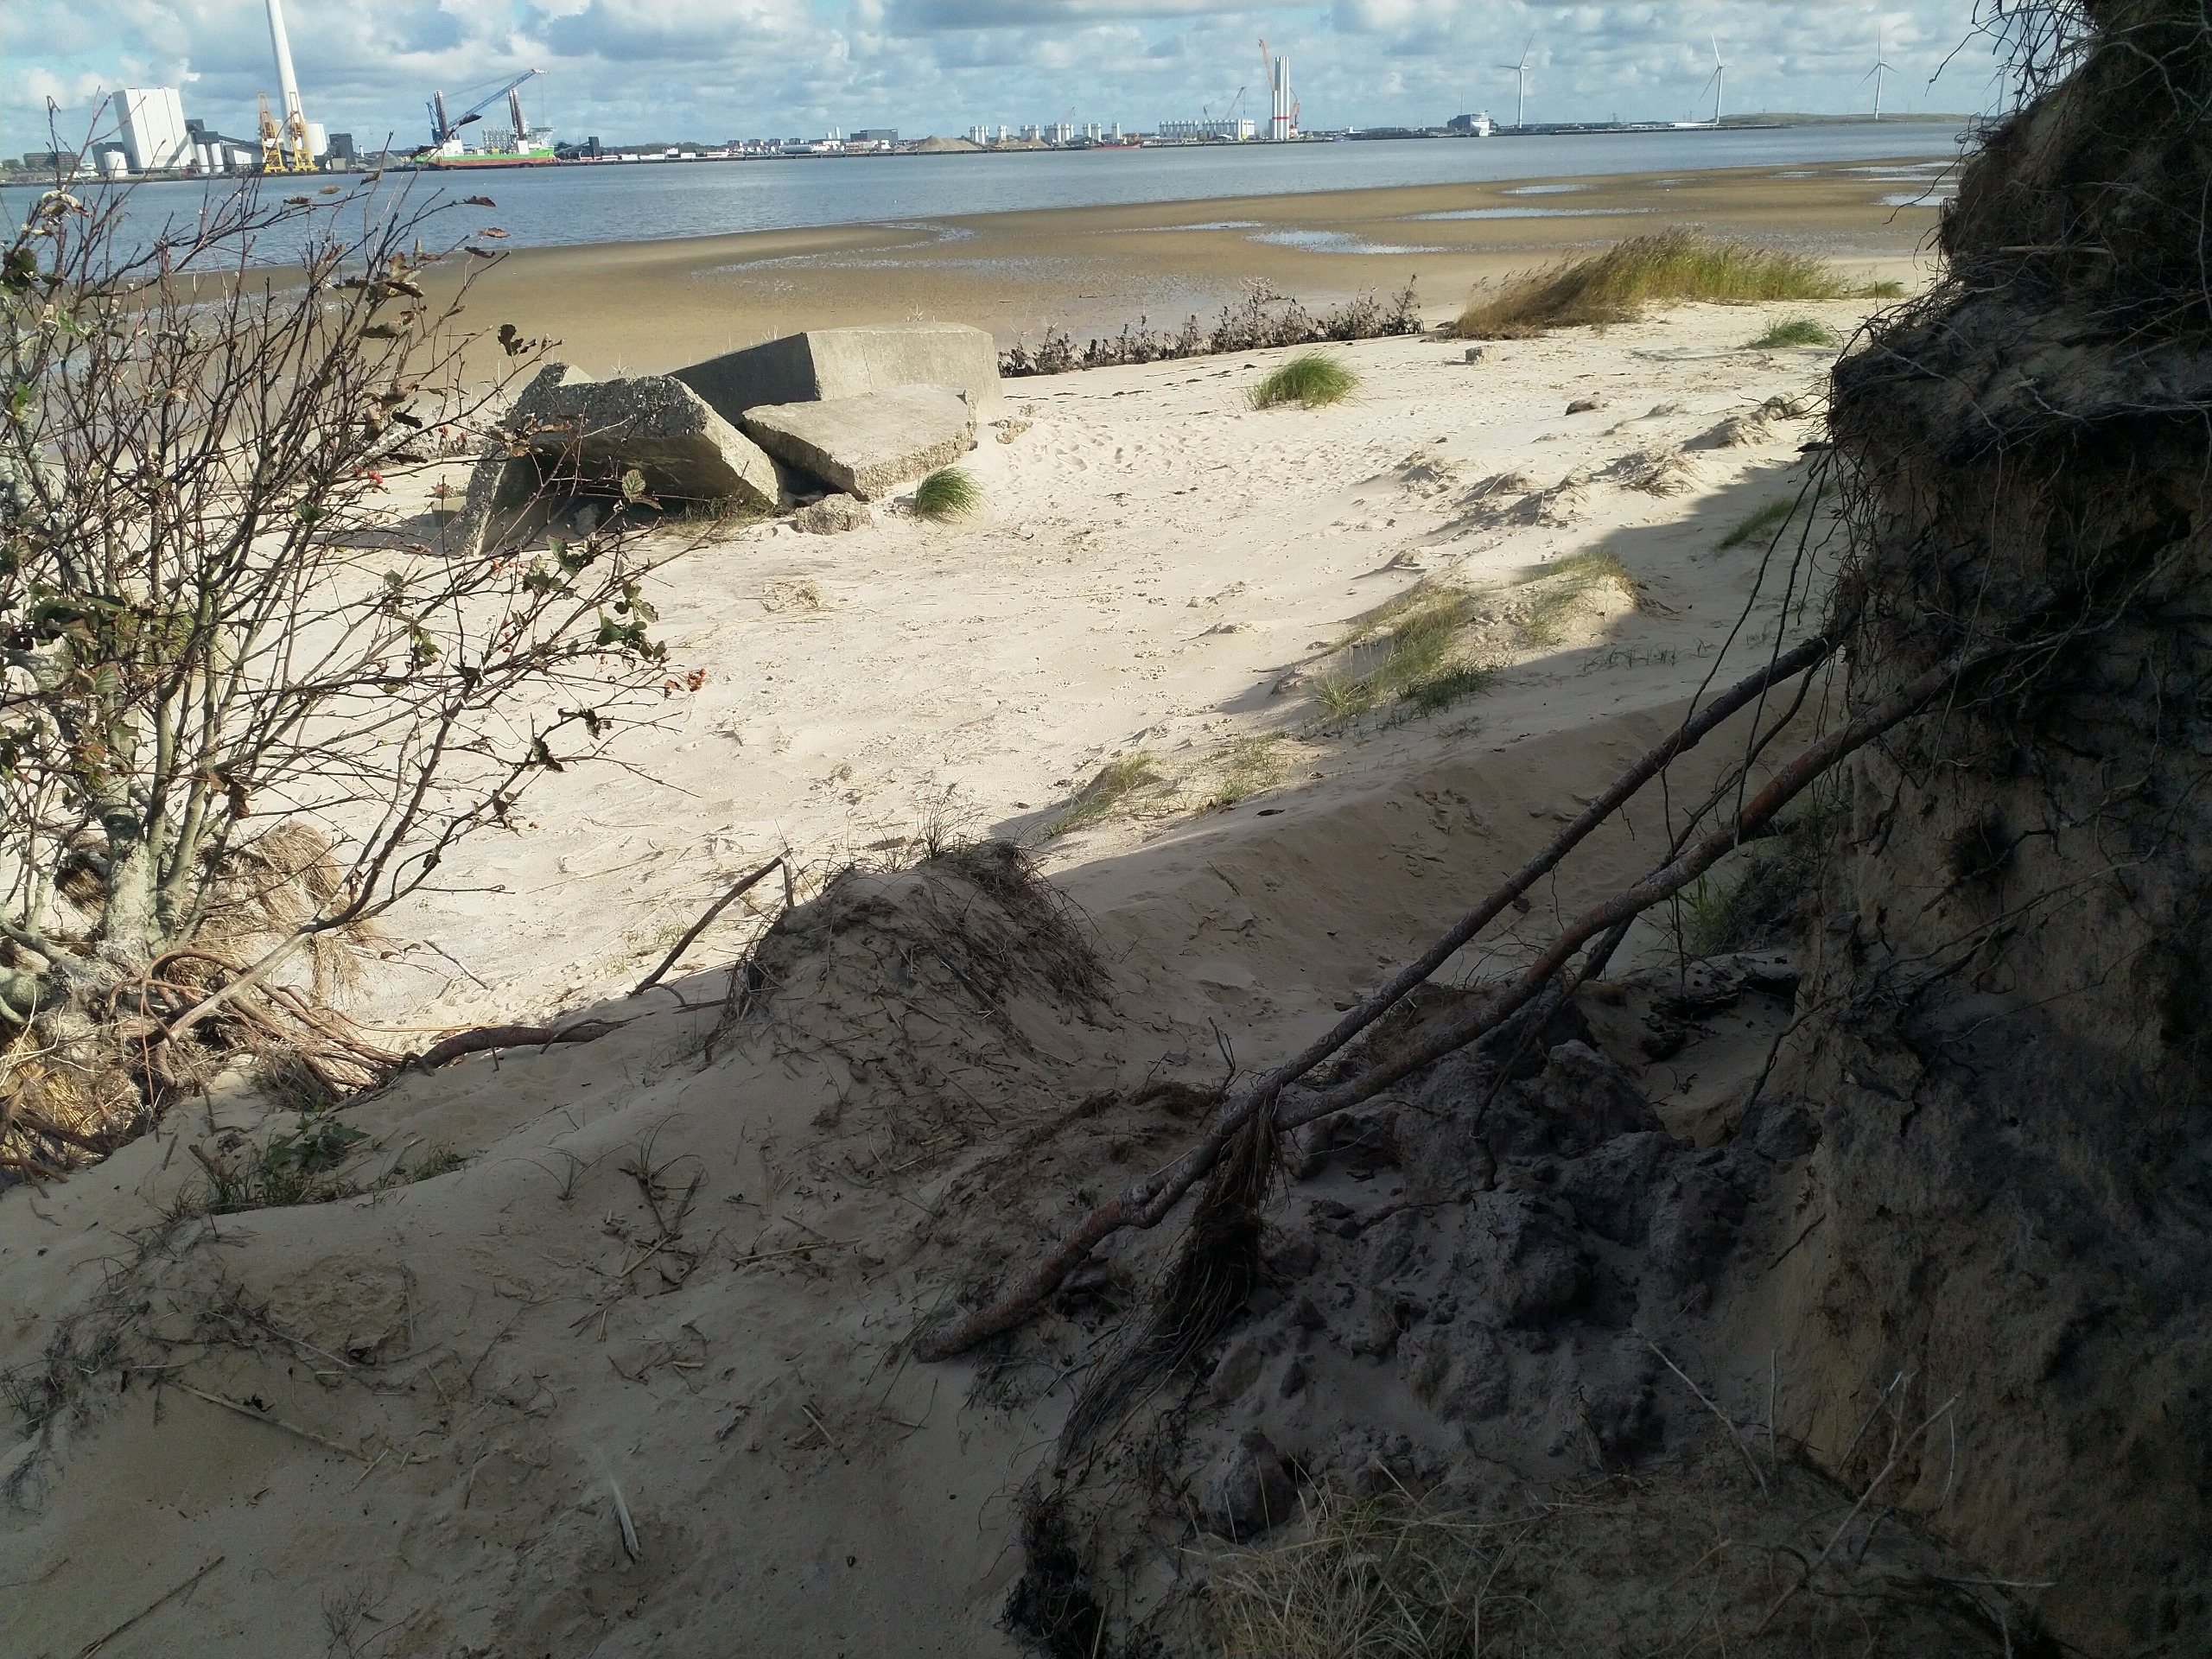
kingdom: Plantae
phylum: Tracheophyta
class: Magnoliopsida
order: Rosales
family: Rosaceae
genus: Scandosorbus
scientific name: Scandosorbus intermedia
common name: Selje-røn
